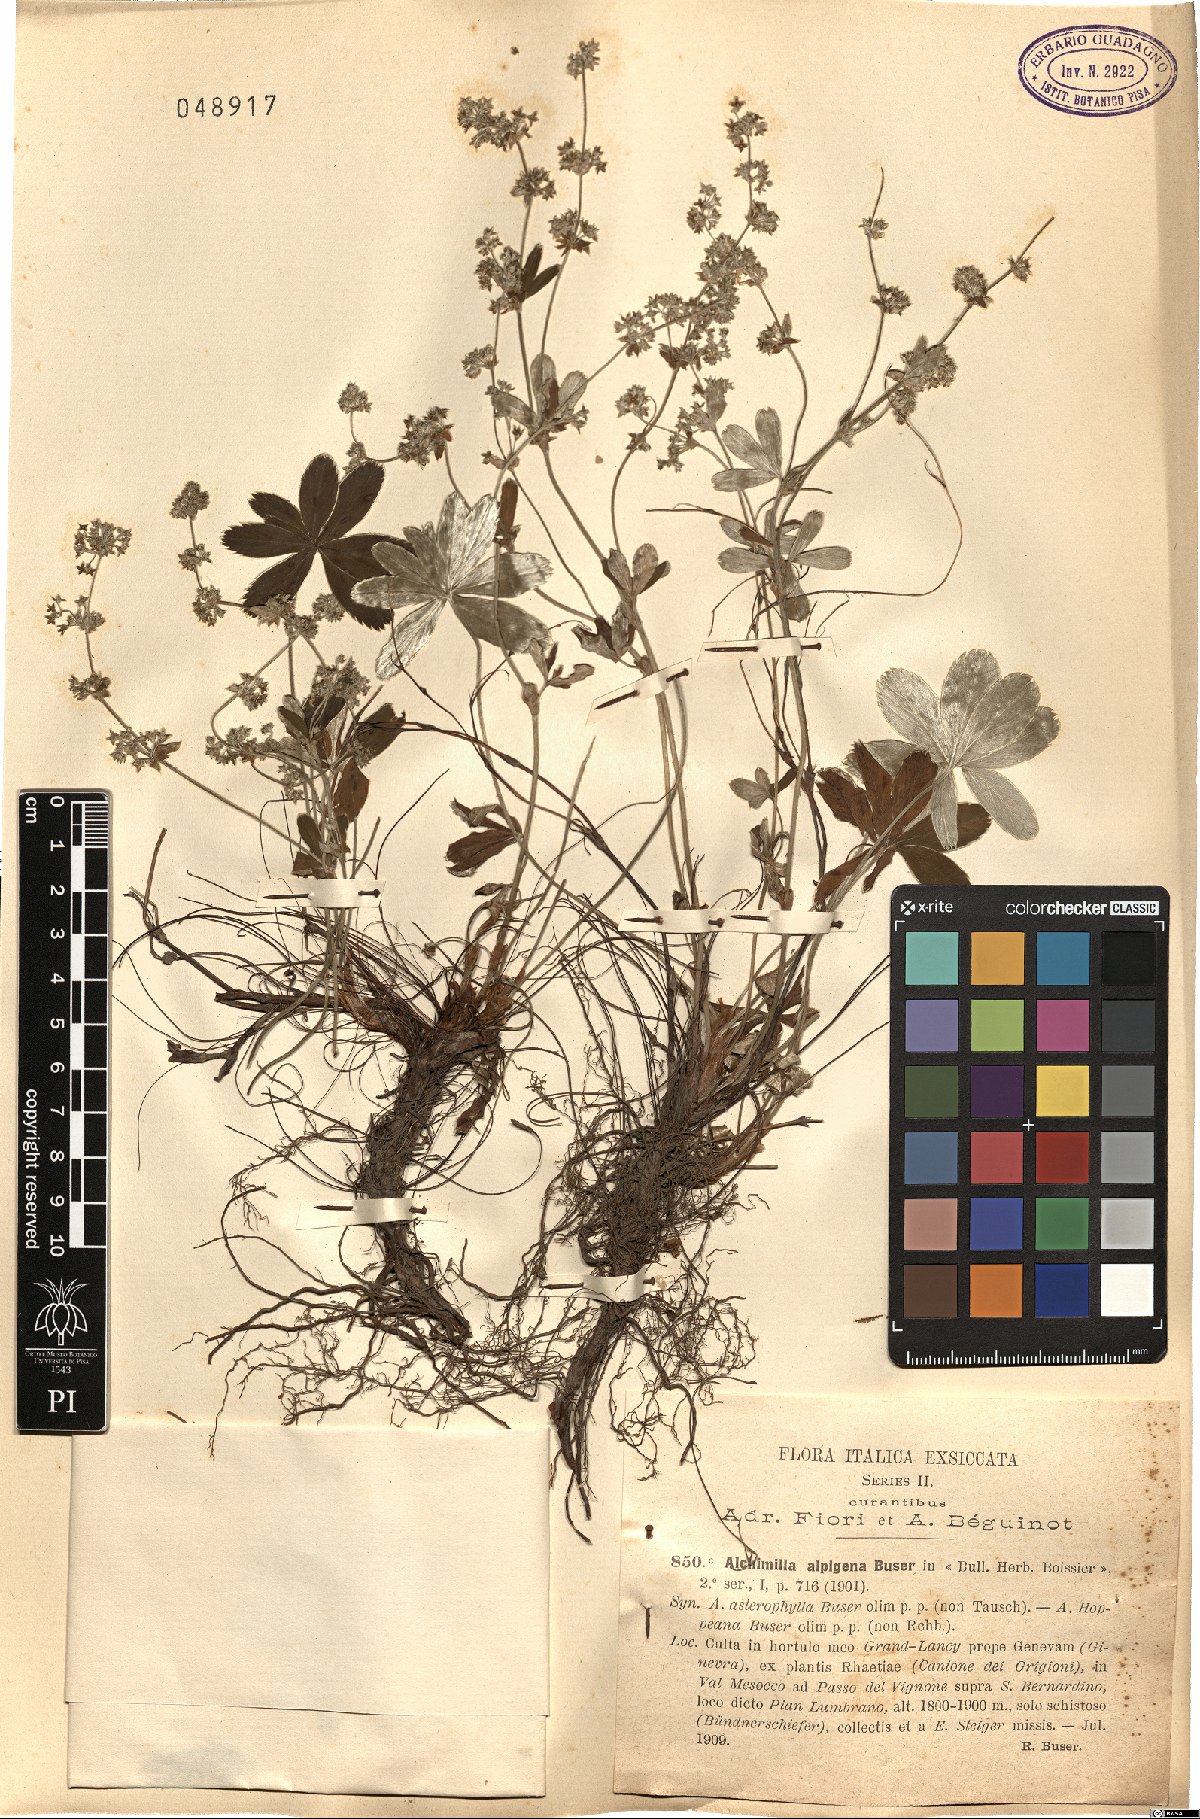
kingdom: Plantae
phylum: Tracheophyta
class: Magnoliopsida
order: Rosales
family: Rosaceae
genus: Alchemilla
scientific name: Alchemilla alpigena
